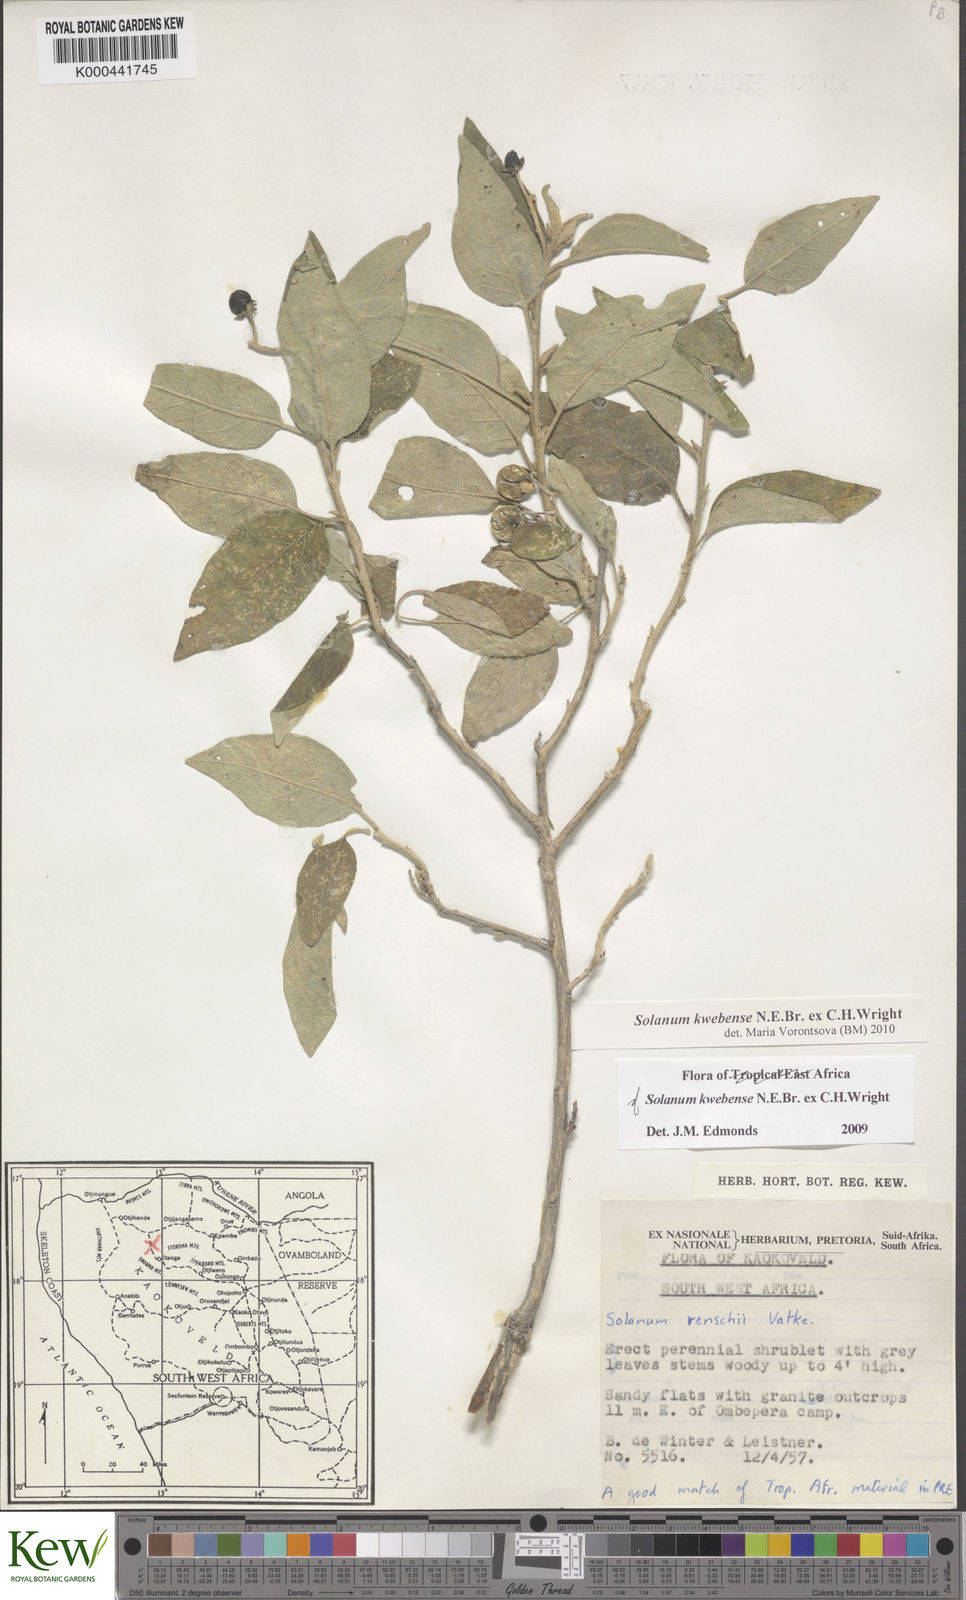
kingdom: Plantae
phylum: Tracheophyta
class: Magnoliopsida
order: Solanales
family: Solanaceae
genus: Solanum
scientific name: Solanum tettense
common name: Mozambique bitter apple
